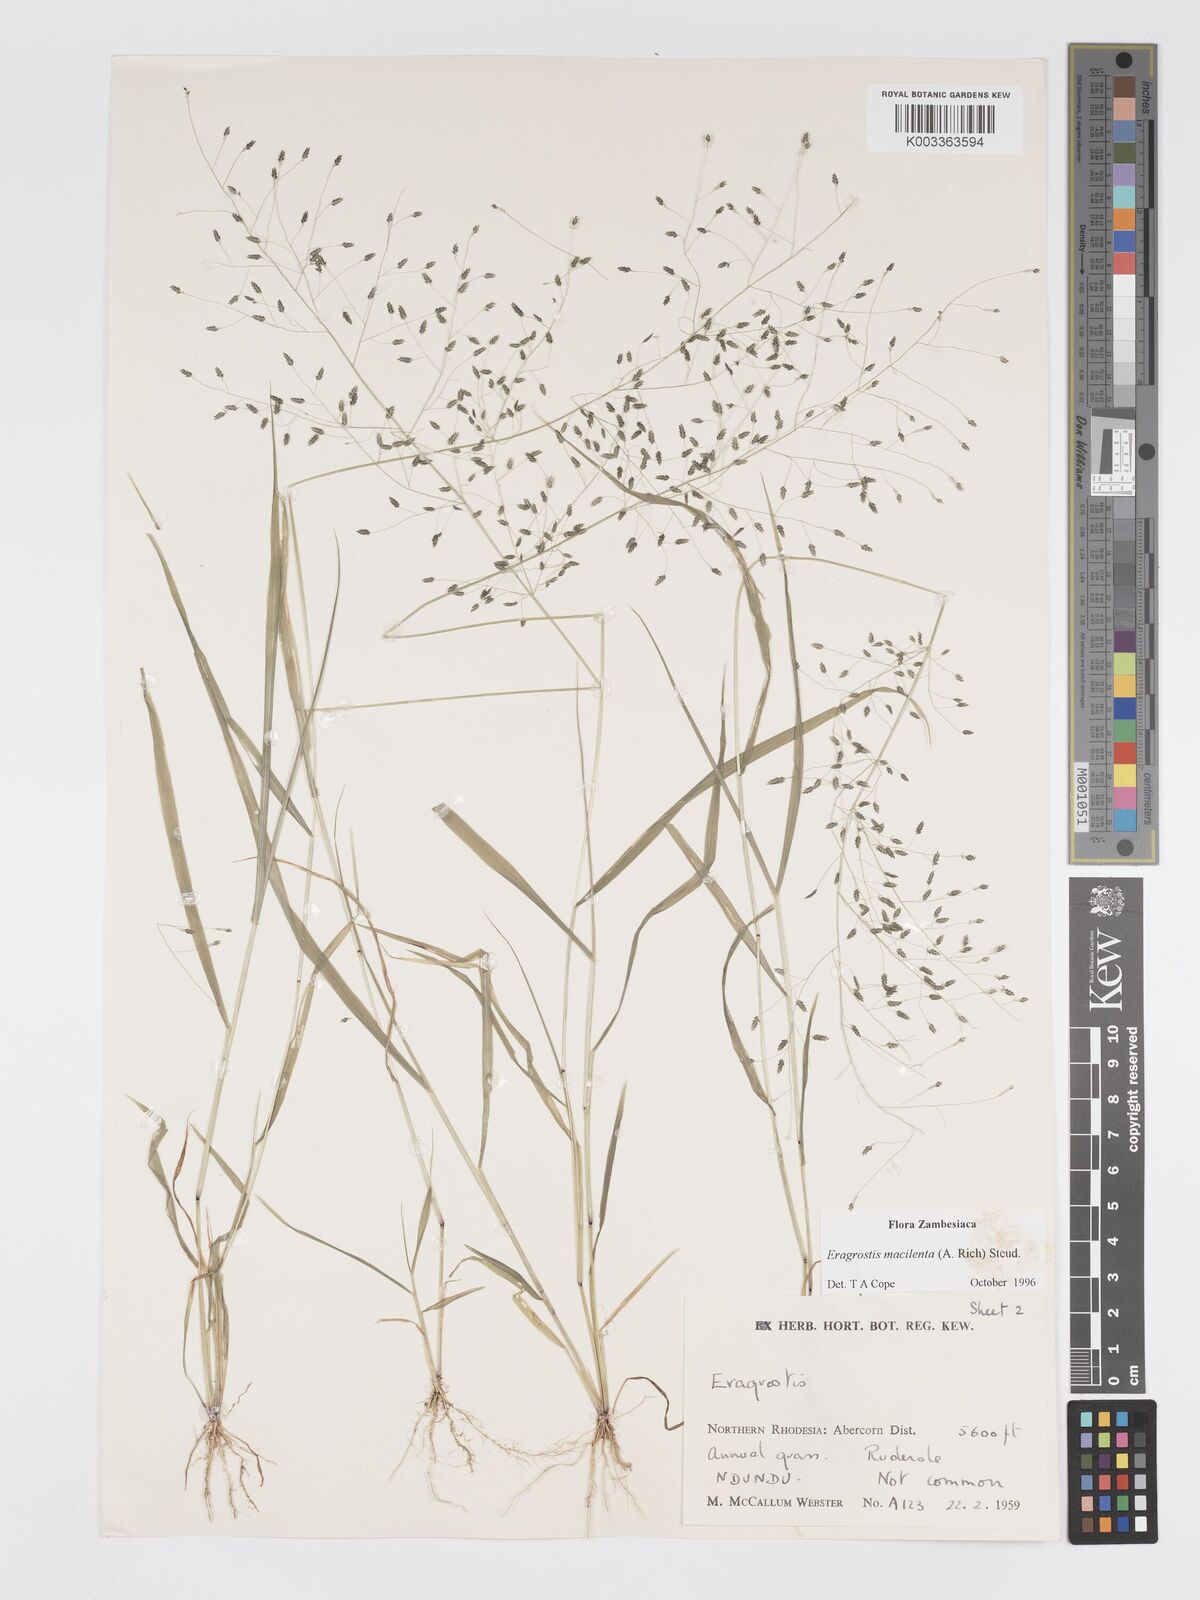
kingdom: Plantae
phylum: Tracheophyta
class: Liliopsida
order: Poales
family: Poaceae
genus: Eragrostis
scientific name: Eragrostis macilenta
